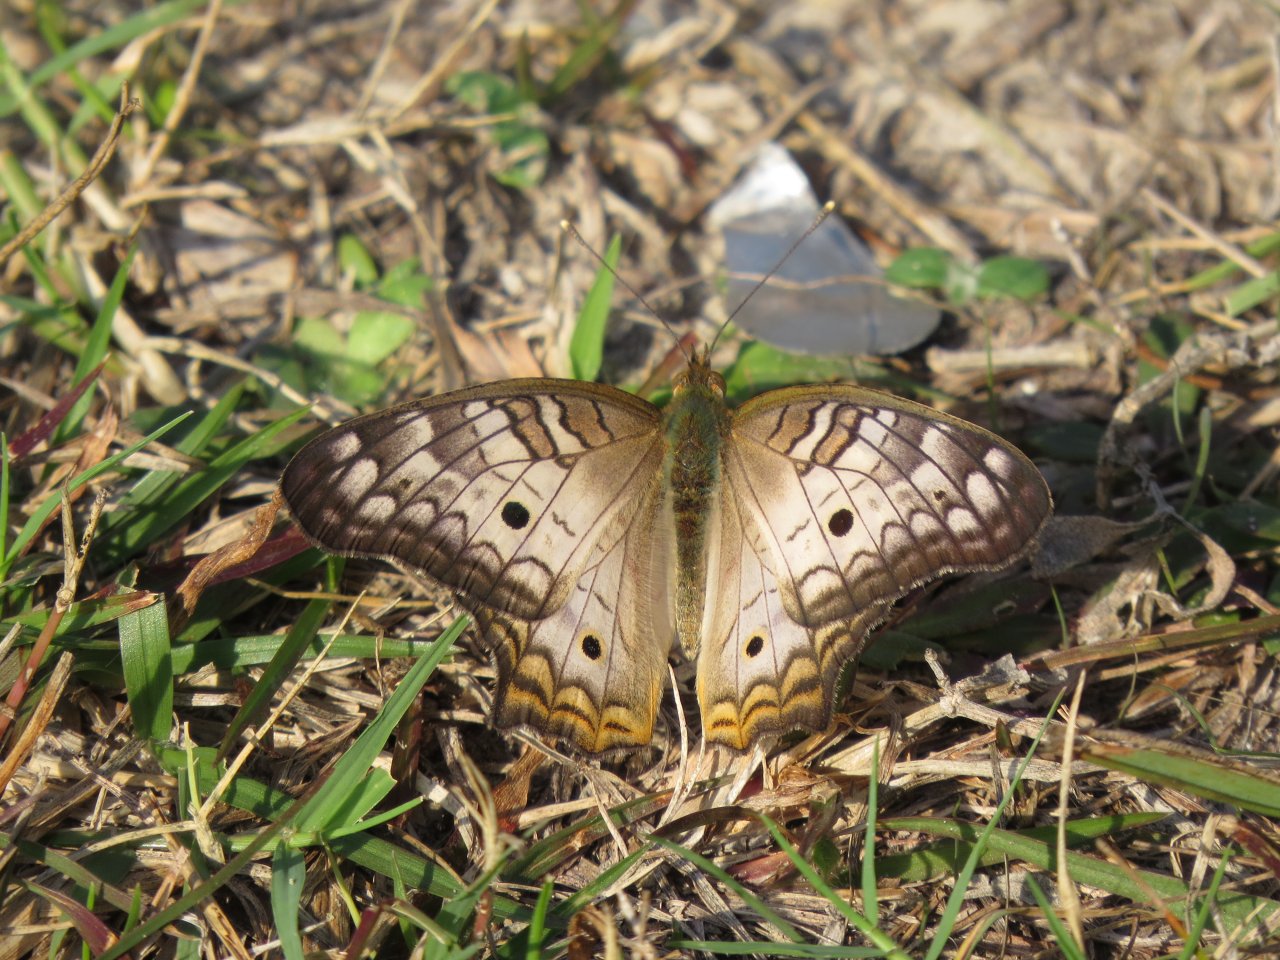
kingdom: Animalia
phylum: Arthropoda
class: Insecta
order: Lepidoptera
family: Nymphalidae
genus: Anartia
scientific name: Anartia jatrophae
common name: White Peacock
